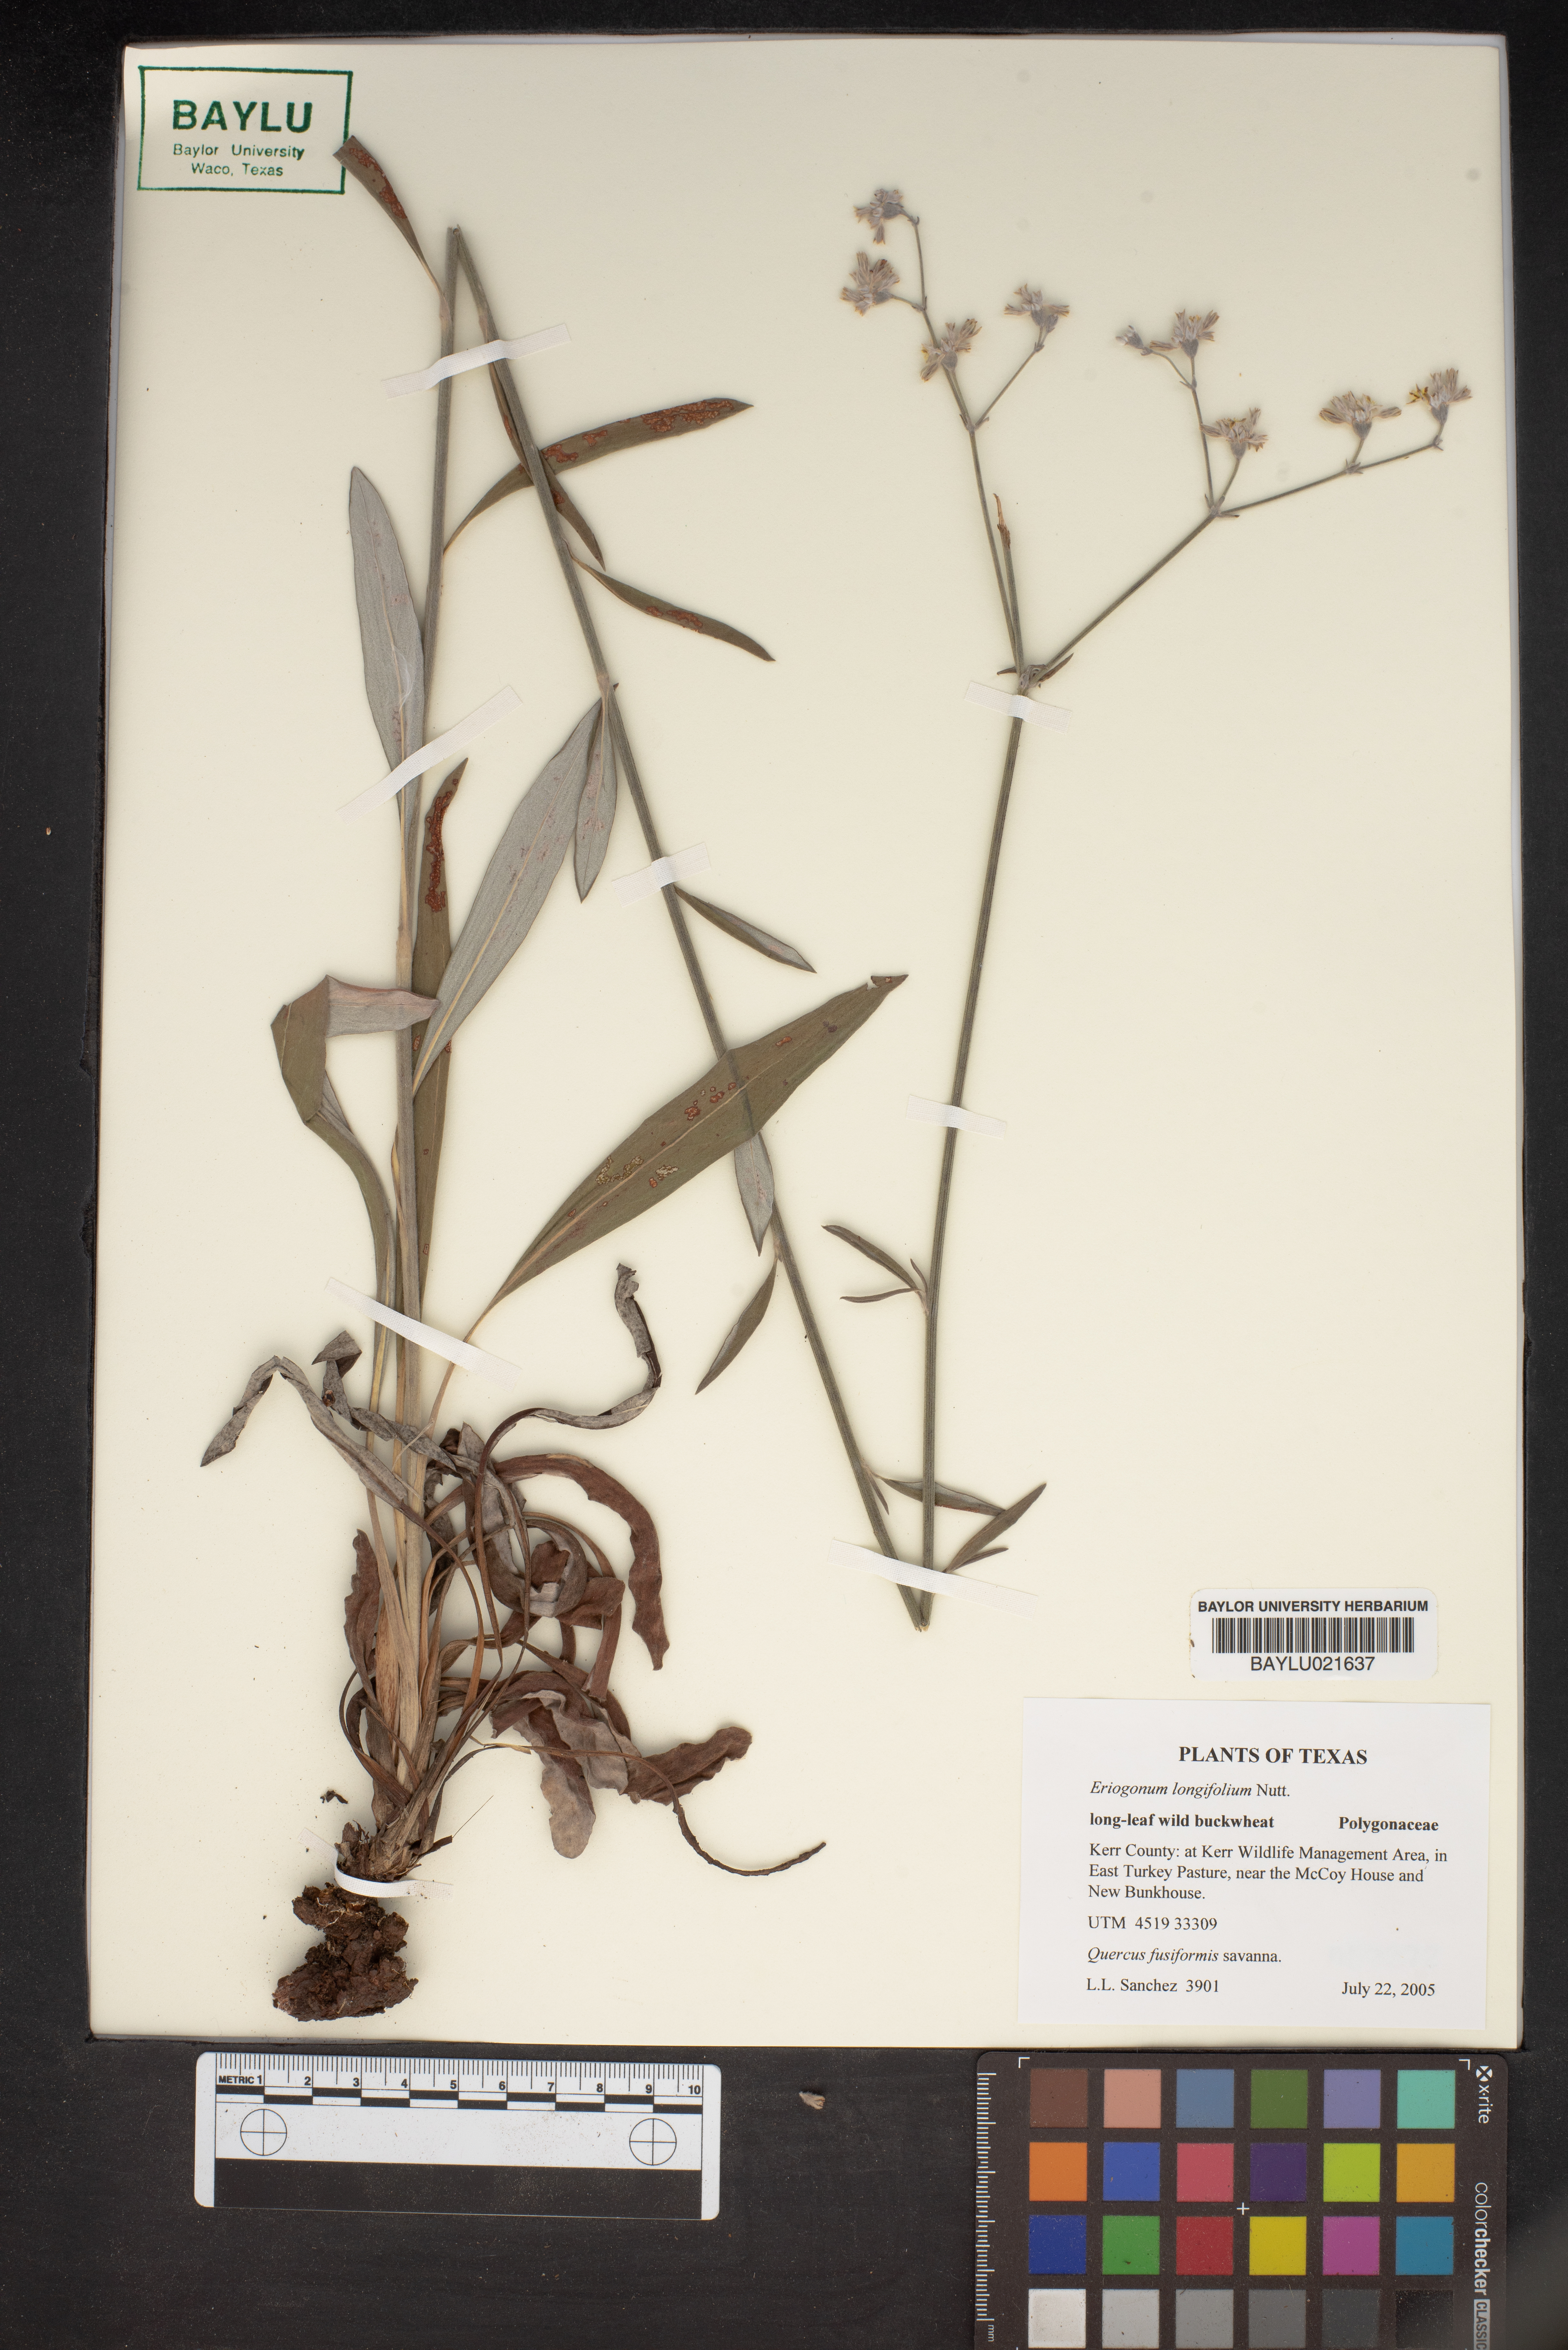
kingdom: Plantae
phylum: Tracheophyta
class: Magnoliopsida
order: Caryophyllales
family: Polygonaceae
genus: Eriogonum
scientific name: Eriogonum longifolium
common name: Longleaf wild buckwheat
